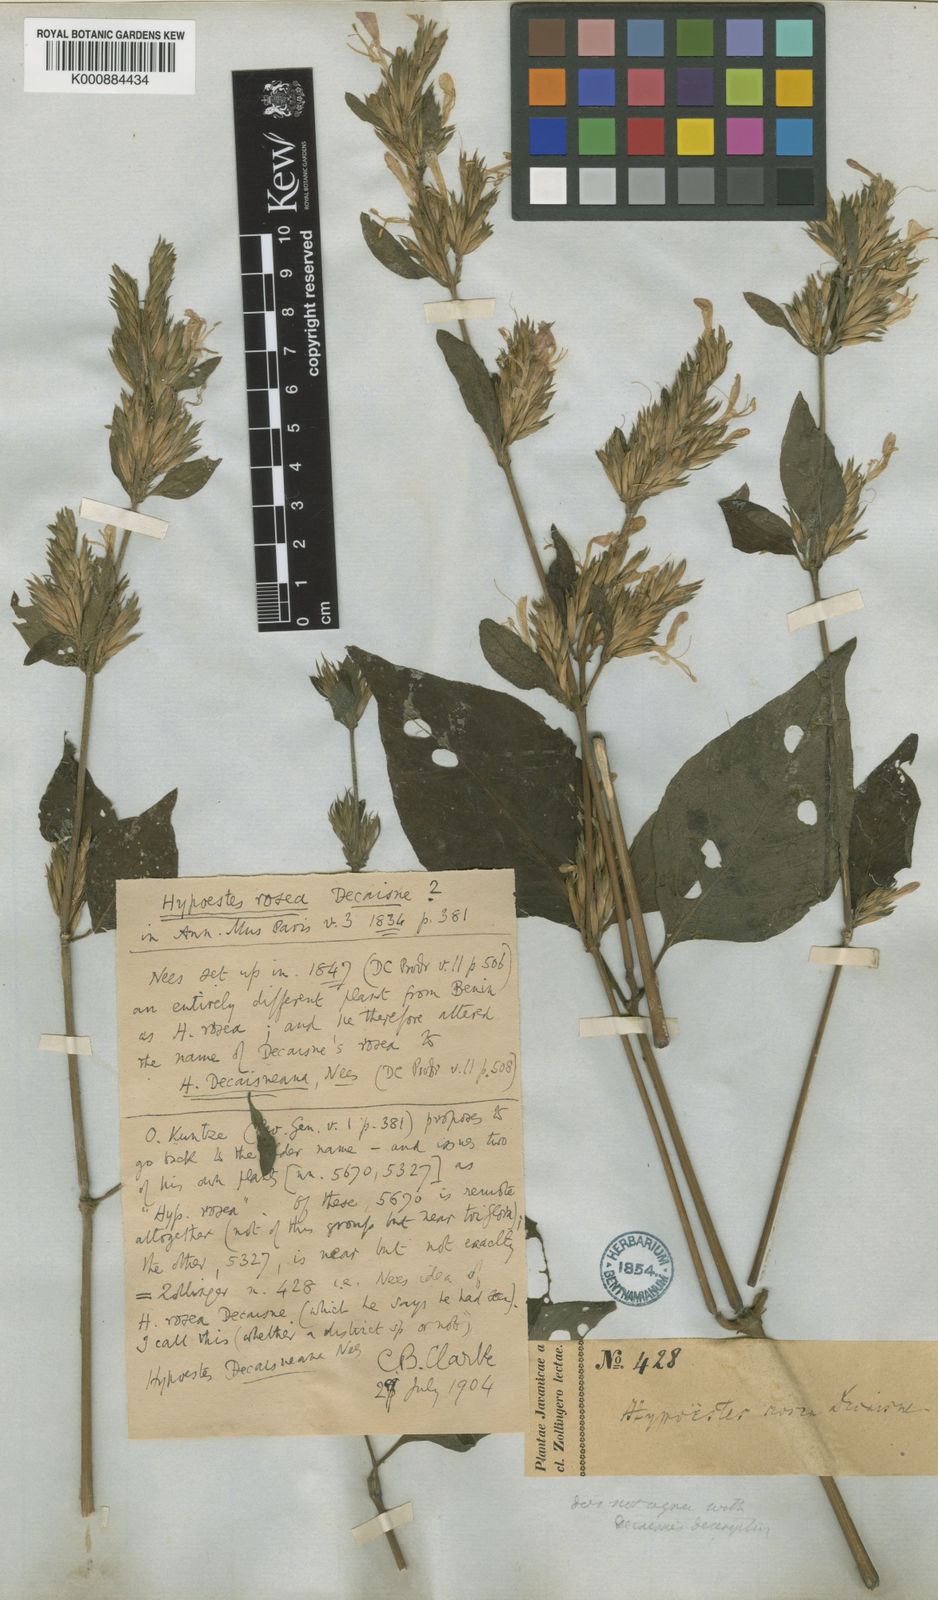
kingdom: Plantae
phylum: Tracheophyta
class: Magnoliopsida
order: Lamiales
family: Acanthaceae
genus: Hypoestes
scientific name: Hypoestes decaisneana
